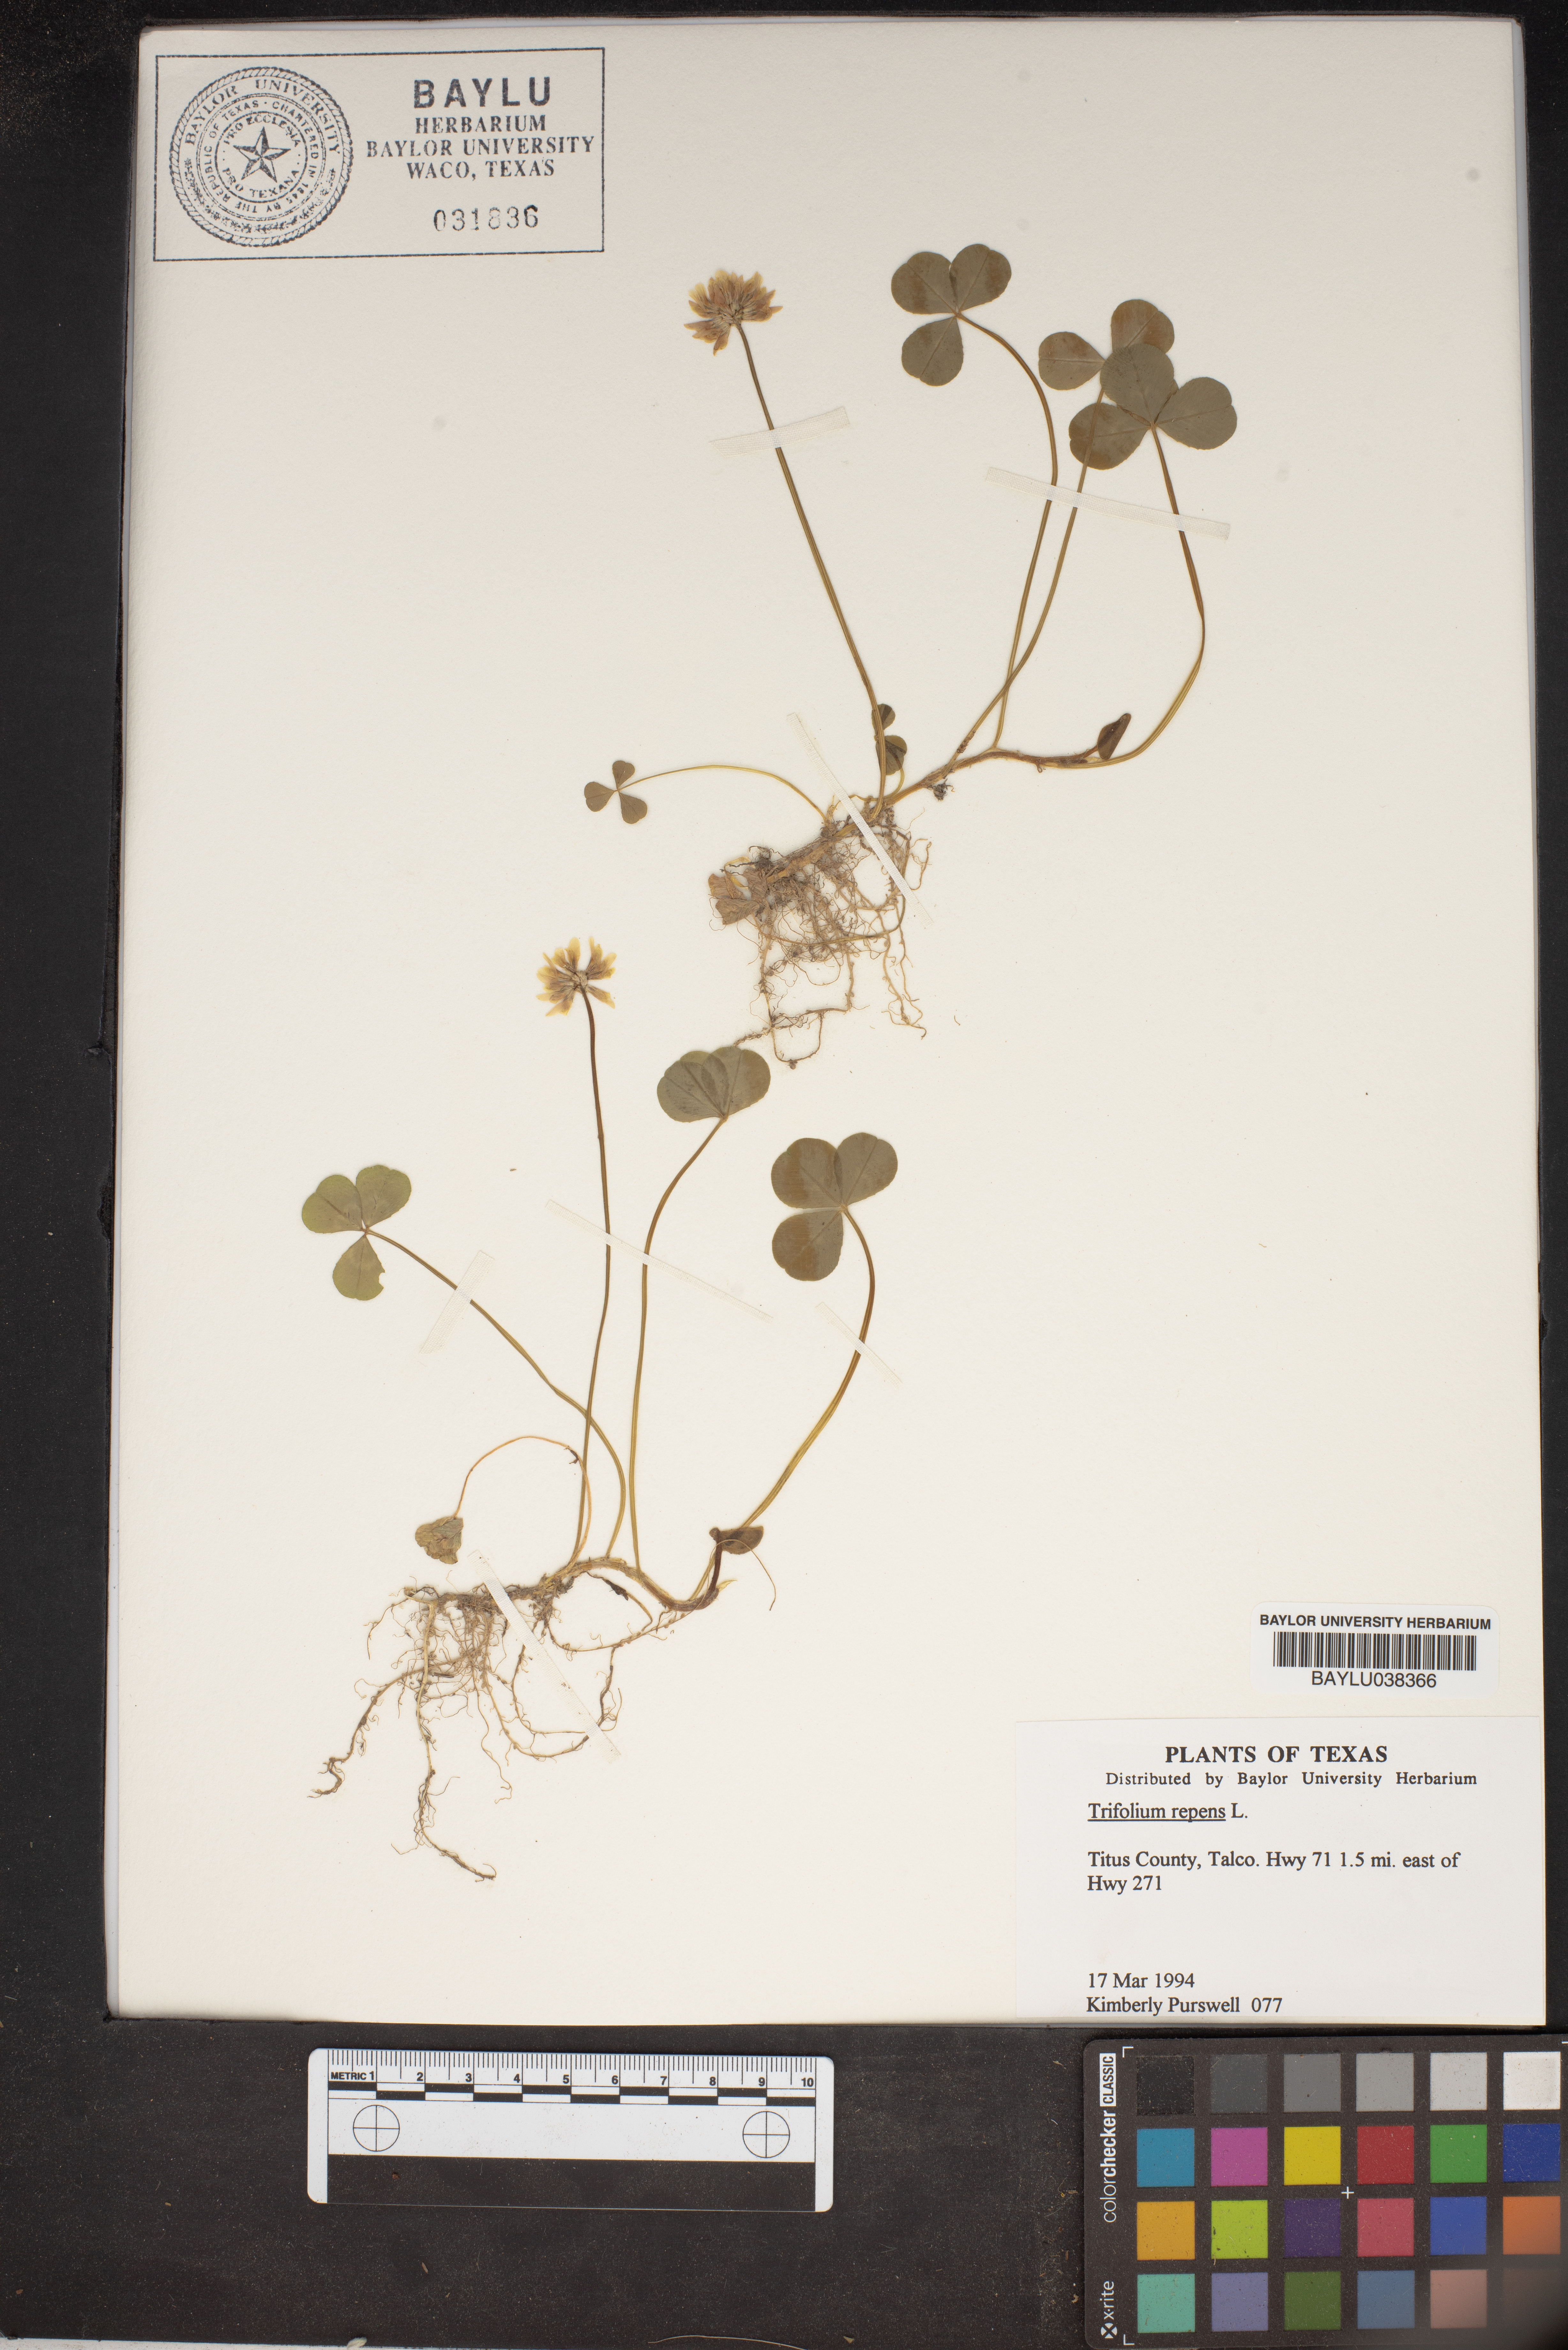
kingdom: Plantae
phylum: Tracheophyta
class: Magnoliopsida
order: Fabales
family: Fabaceae
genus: Trifolium
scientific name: Trifolium repens
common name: White clover
